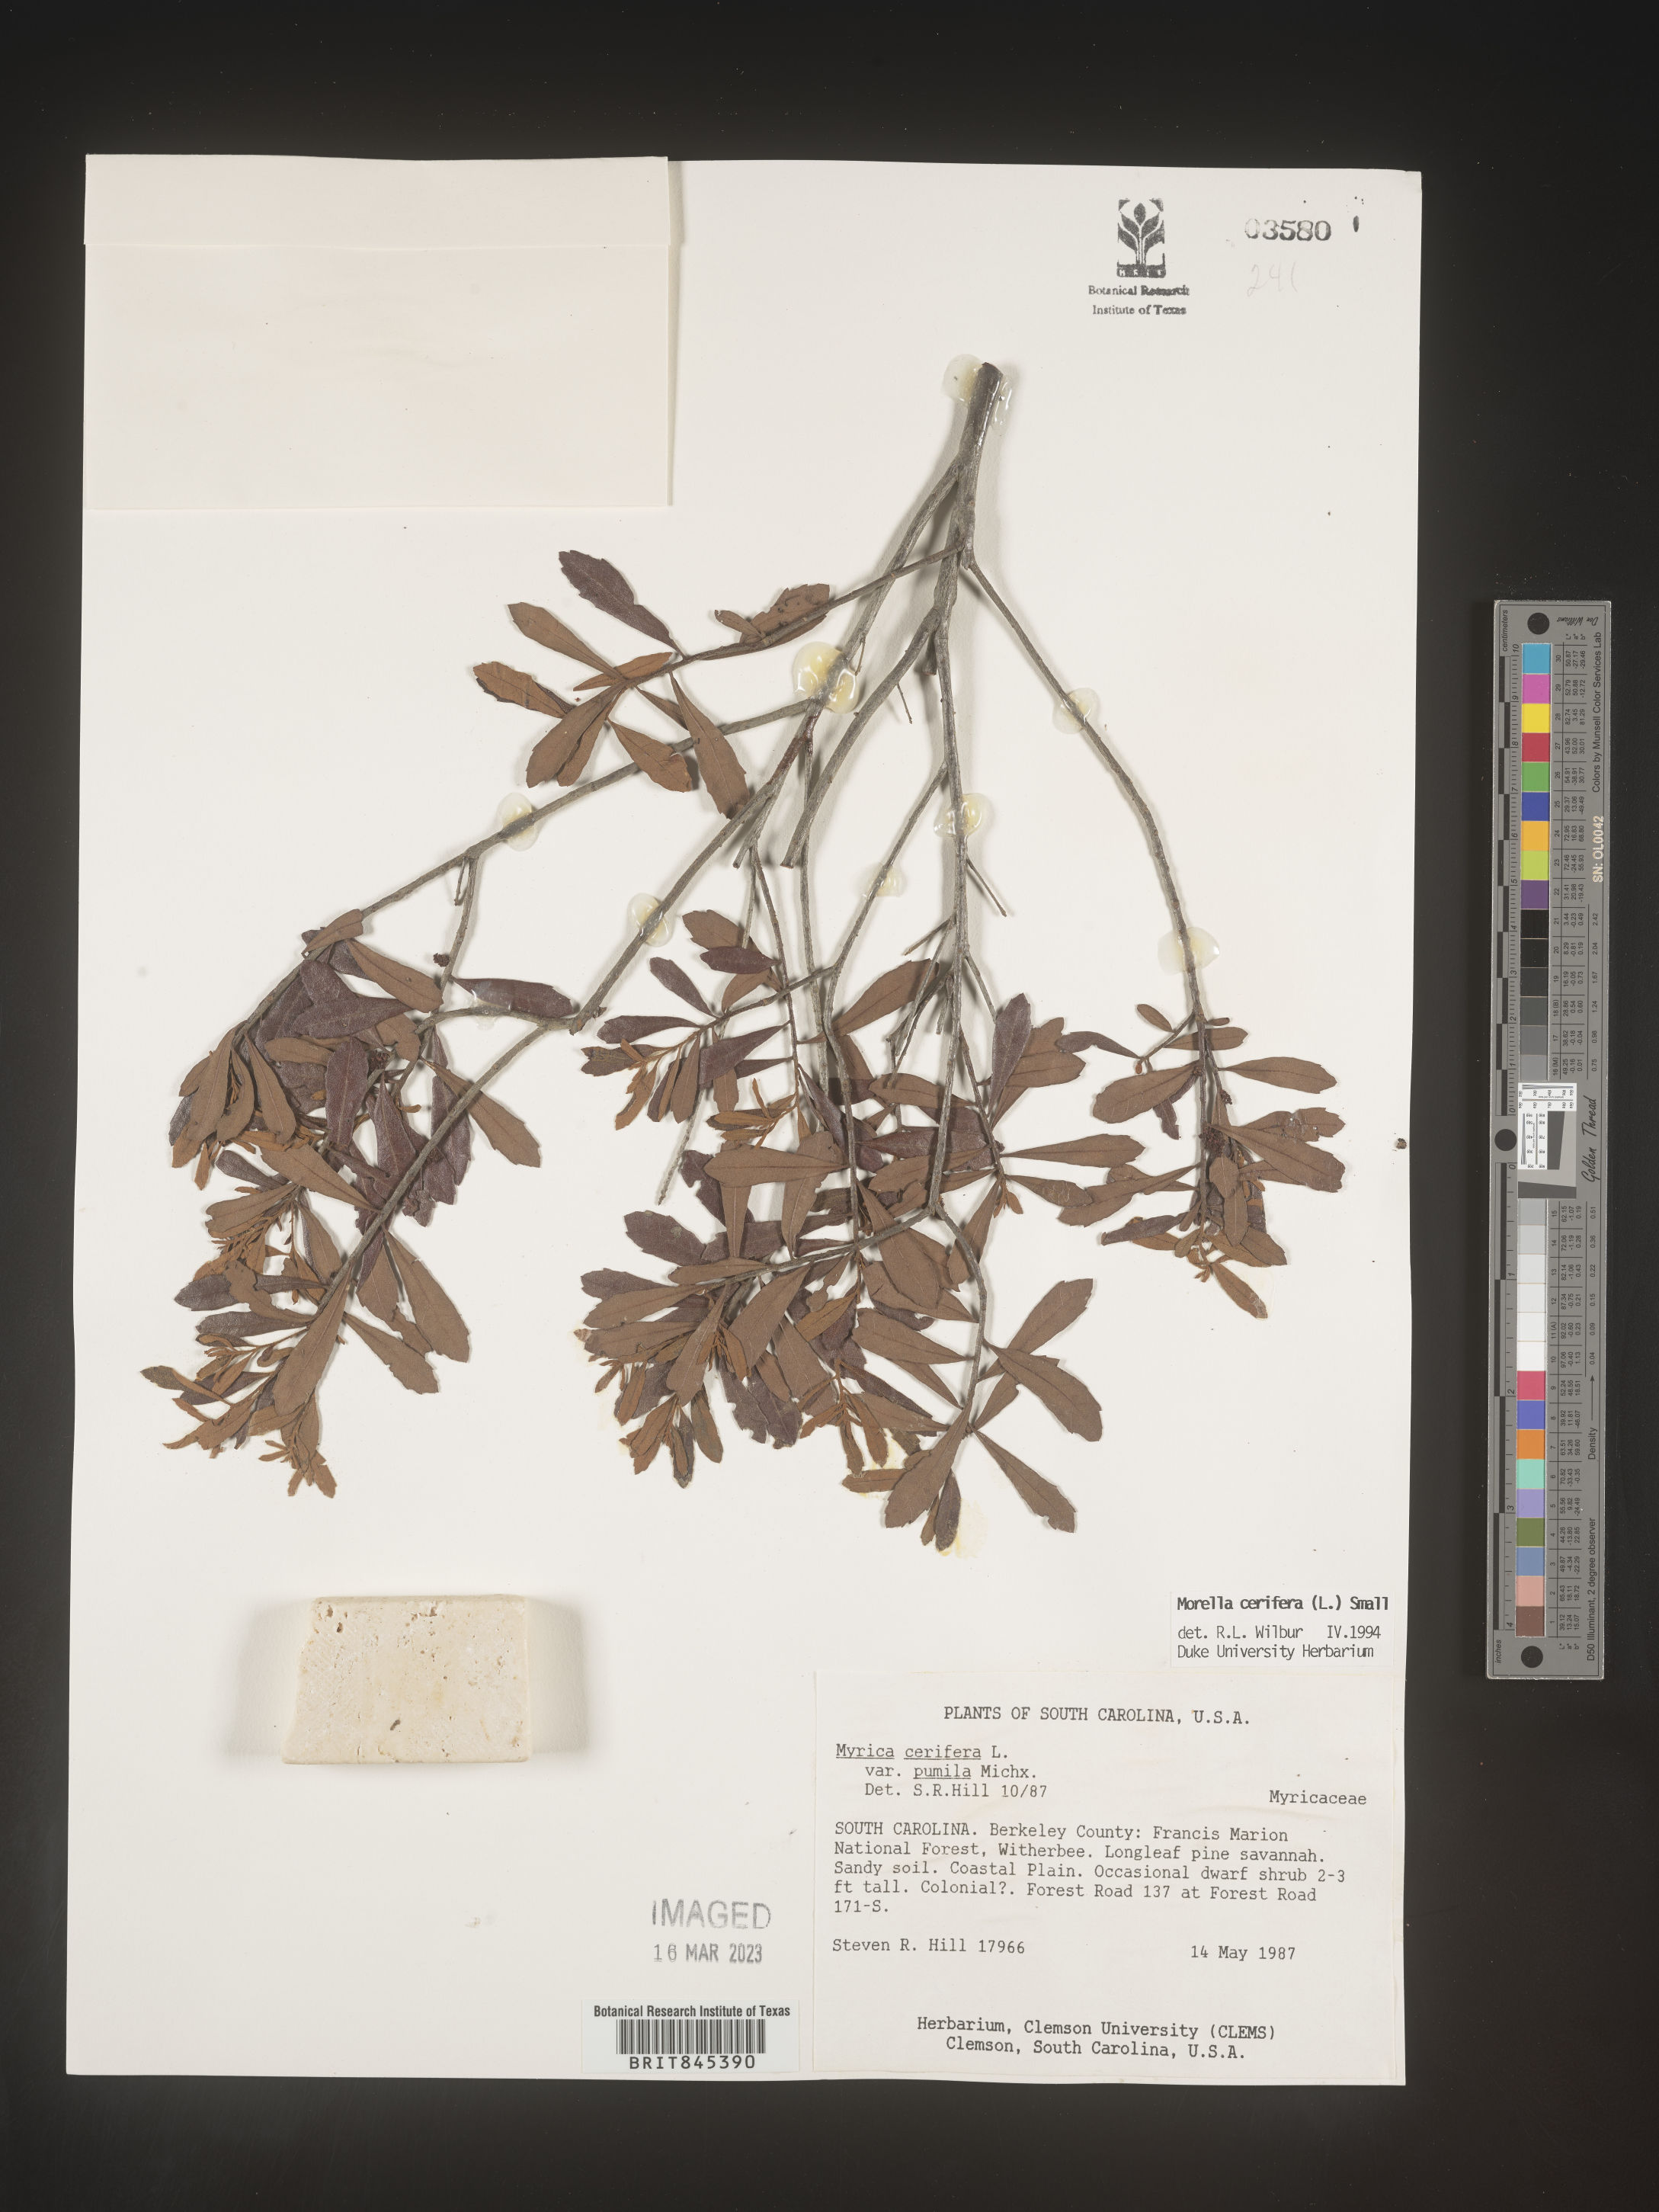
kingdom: Plantae
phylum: Tracheophyta
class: Magnoliopsida
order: Fagales
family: Myricaceae
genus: Morella
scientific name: Morella cerifera
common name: Wax myrtle
